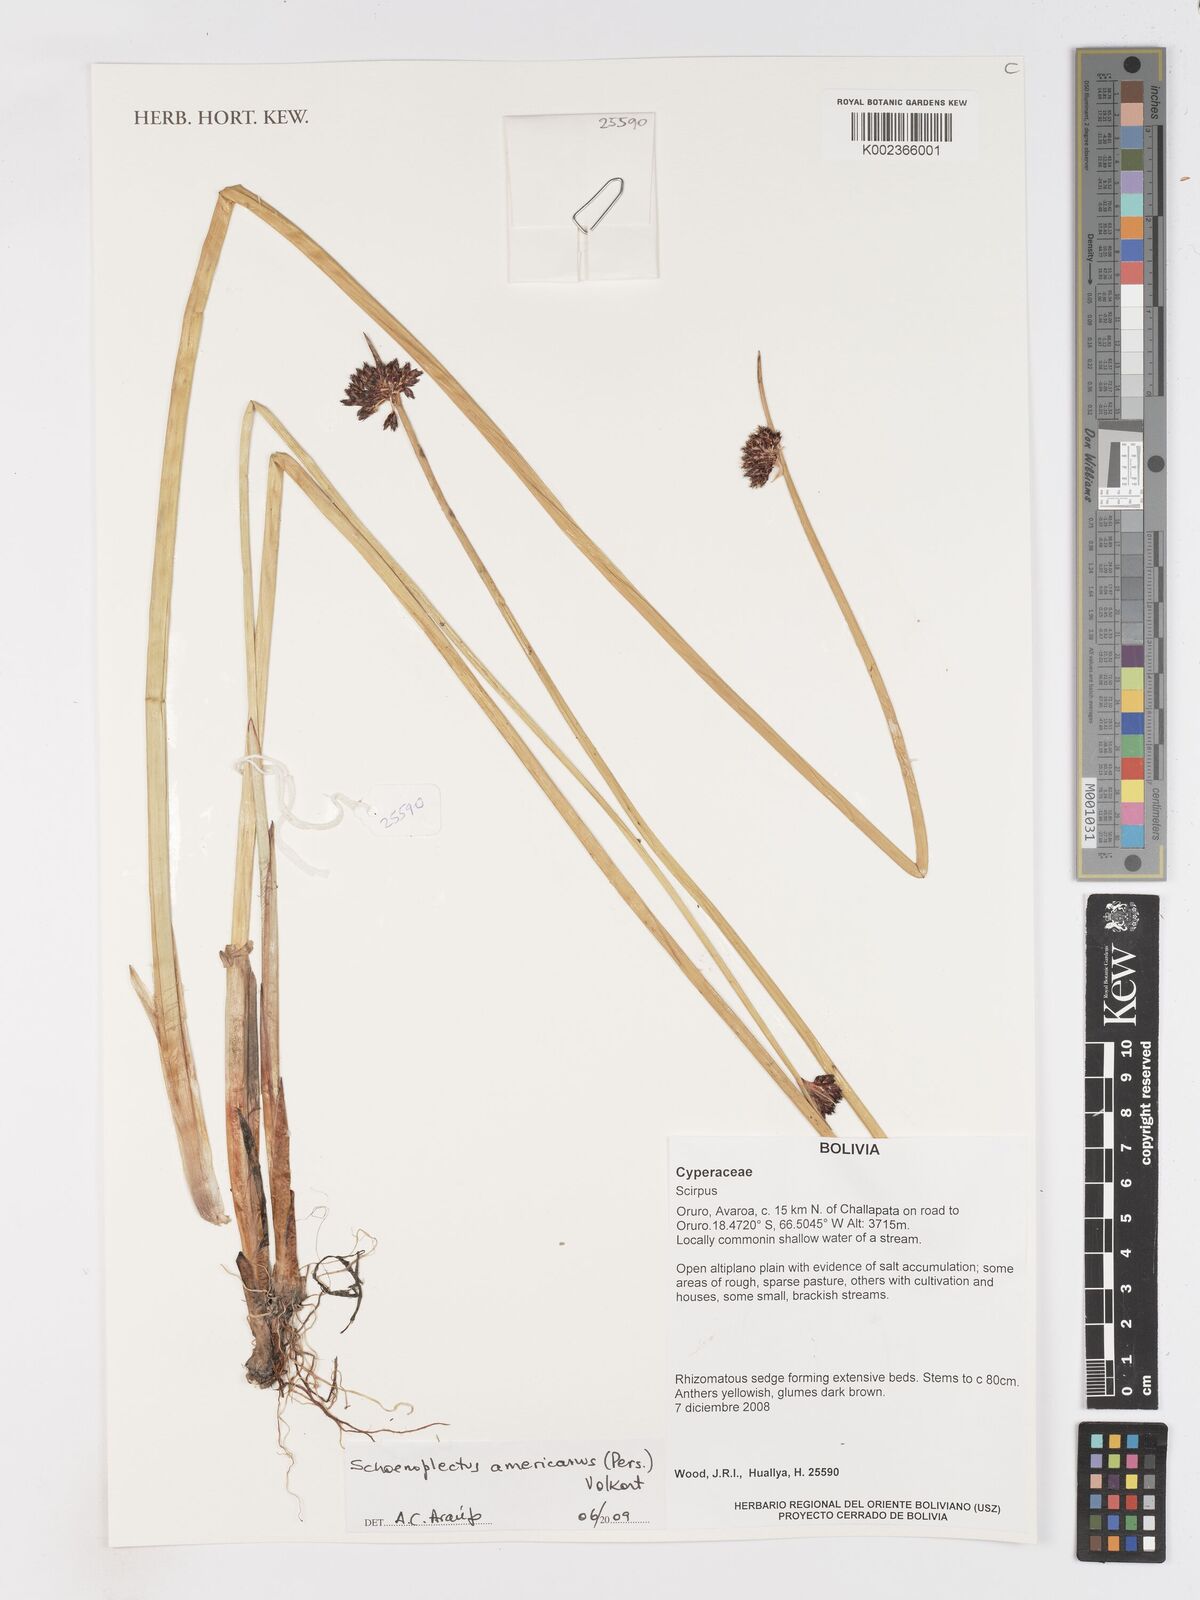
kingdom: Plantae
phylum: Tracheophyta
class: Liliopsida
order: Poales
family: Cyperaceae
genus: Schoenoplectus
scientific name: Schoenoplectus americanus
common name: American three-square bulrush
